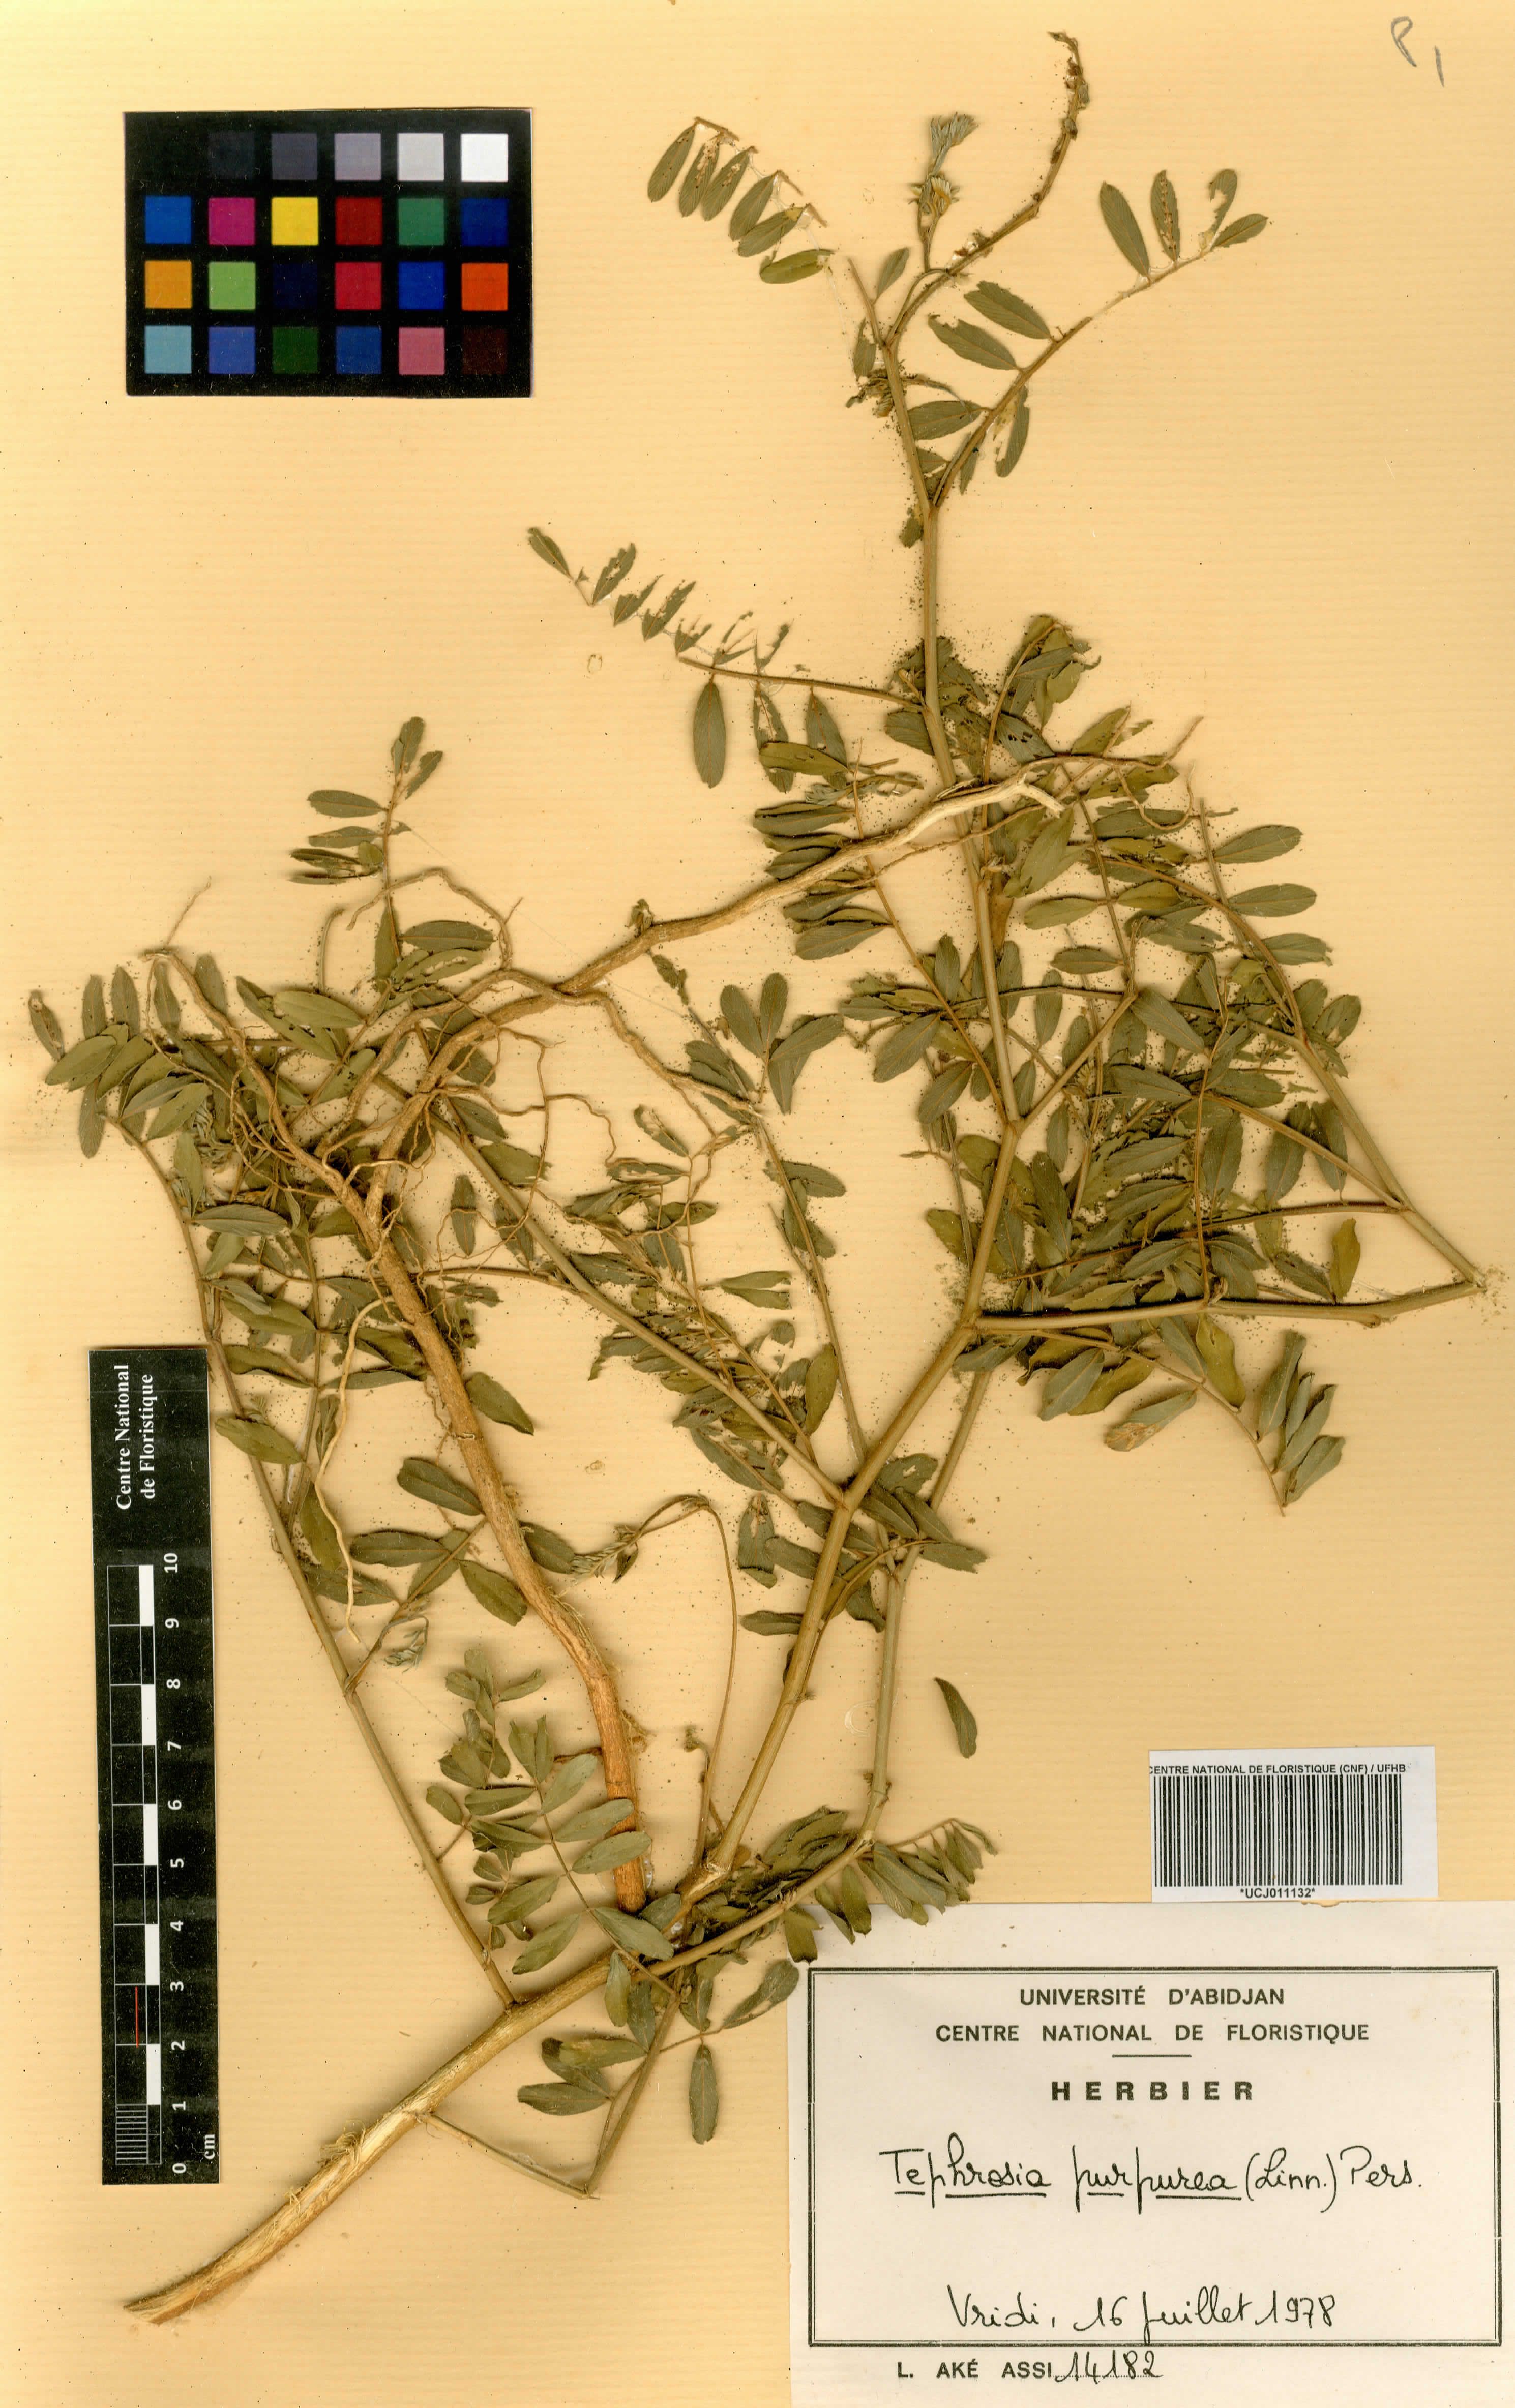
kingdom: Plantae
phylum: Tracheophyta
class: Magnoliopsida
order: Fabales
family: Fabaceae
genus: Tephrosia
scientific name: Tephrosia purpurea
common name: Fishpoison
